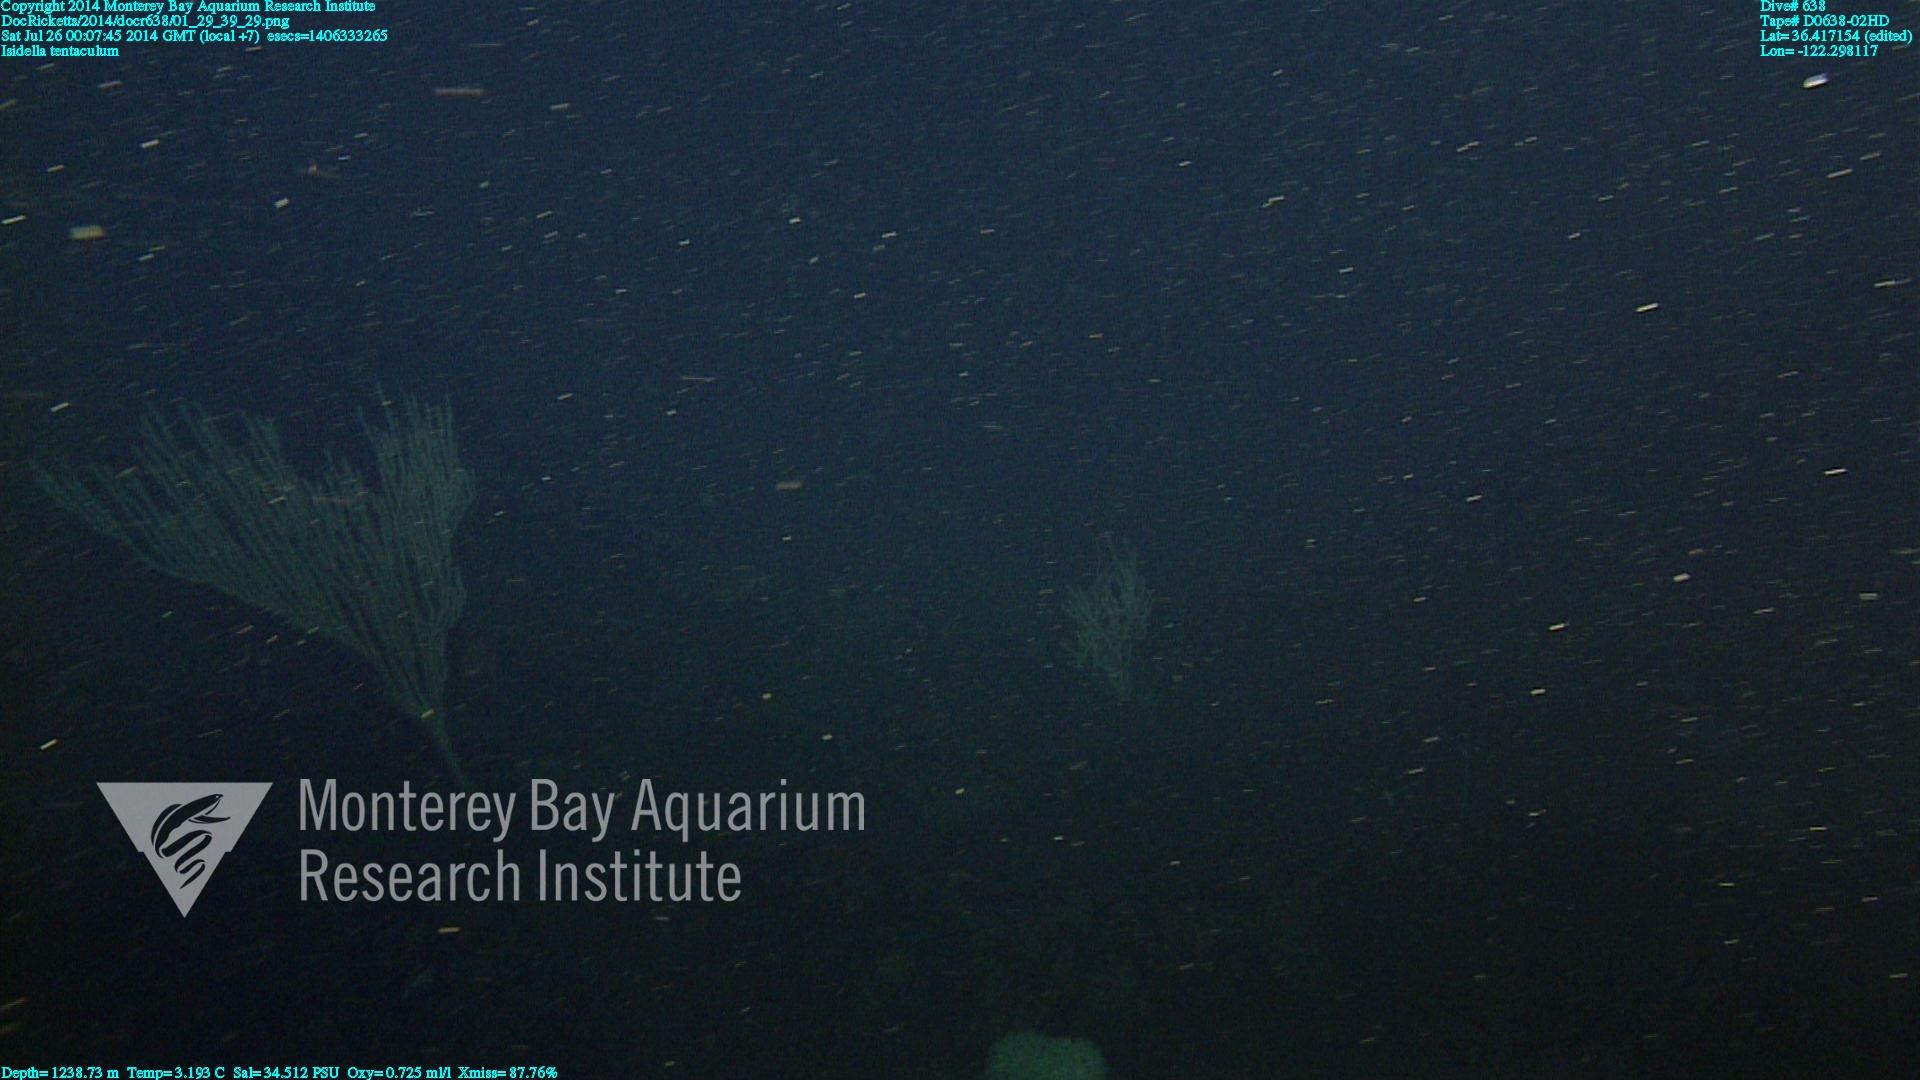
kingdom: Animalia
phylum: Cnidaria
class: Anthozoa
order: Scleralcyonacea
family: Keratoisididae
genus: Isidella
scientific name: Isidella tentaculum
